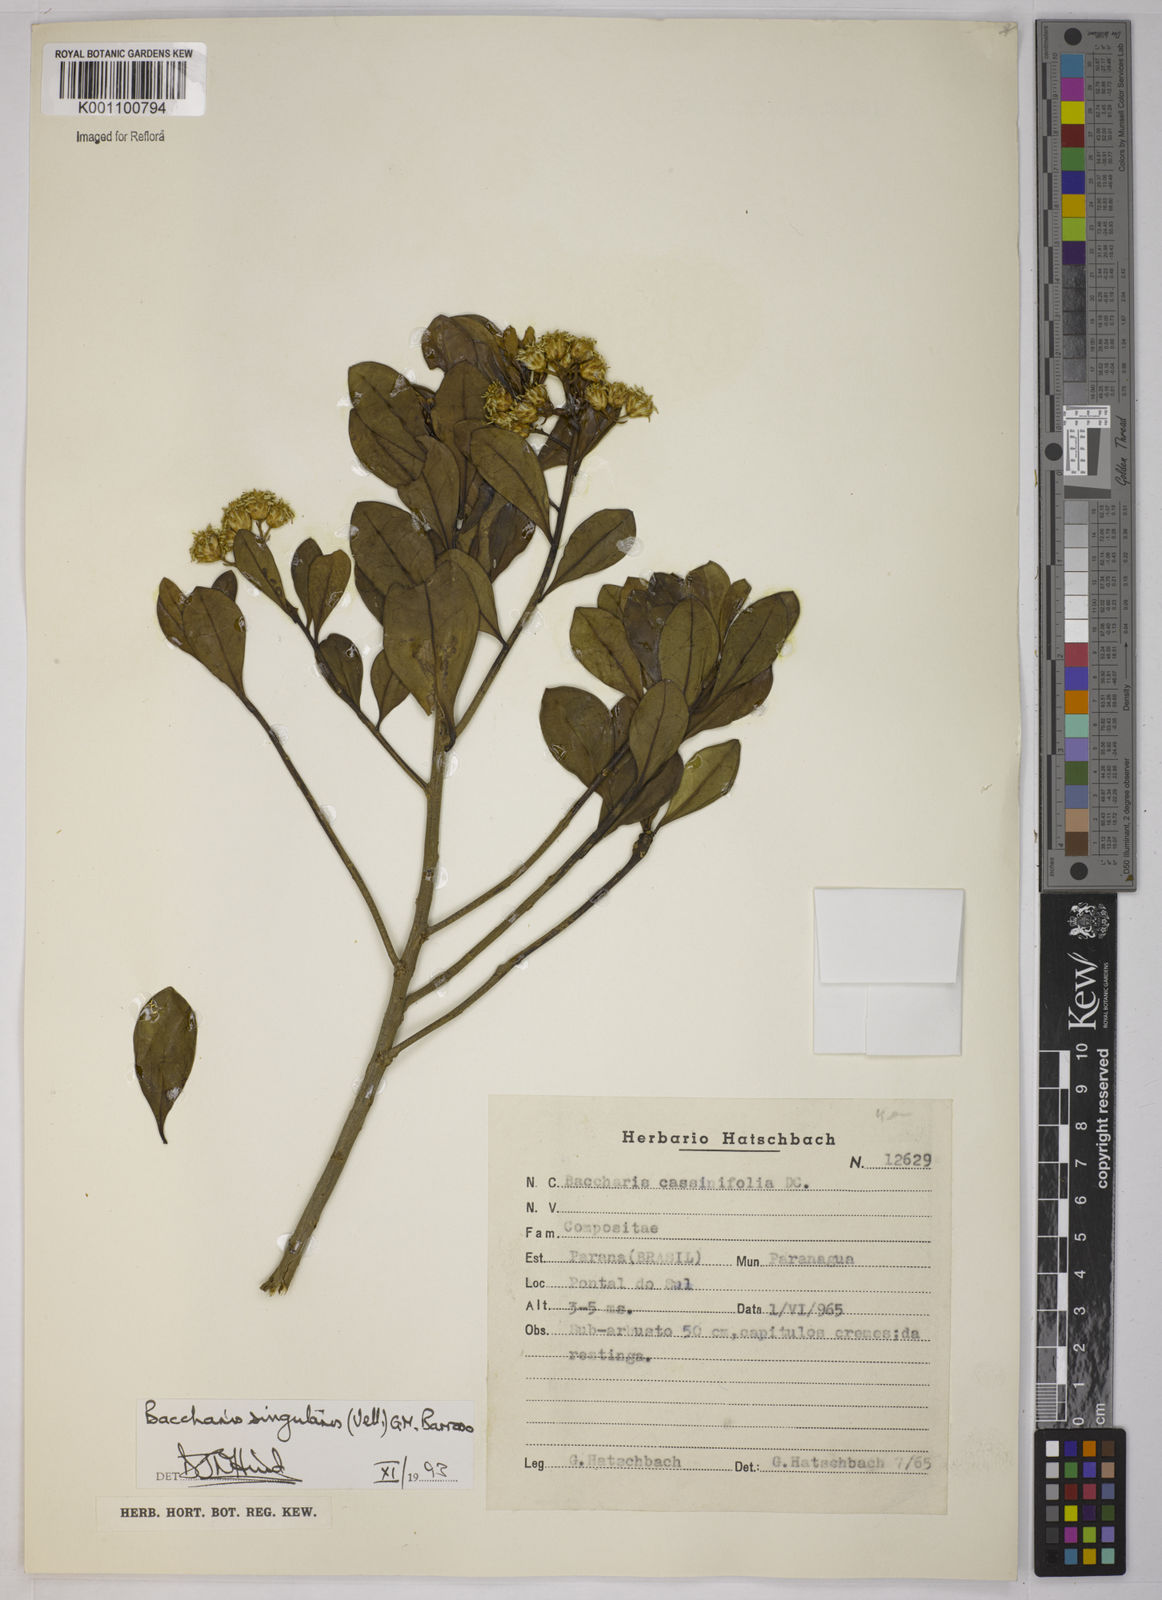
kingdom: Plantae
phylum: Tracheophyta
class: Magnoliopsida
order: Asterales
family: Asteraceae
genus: Baccharis
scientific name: Baccharis
